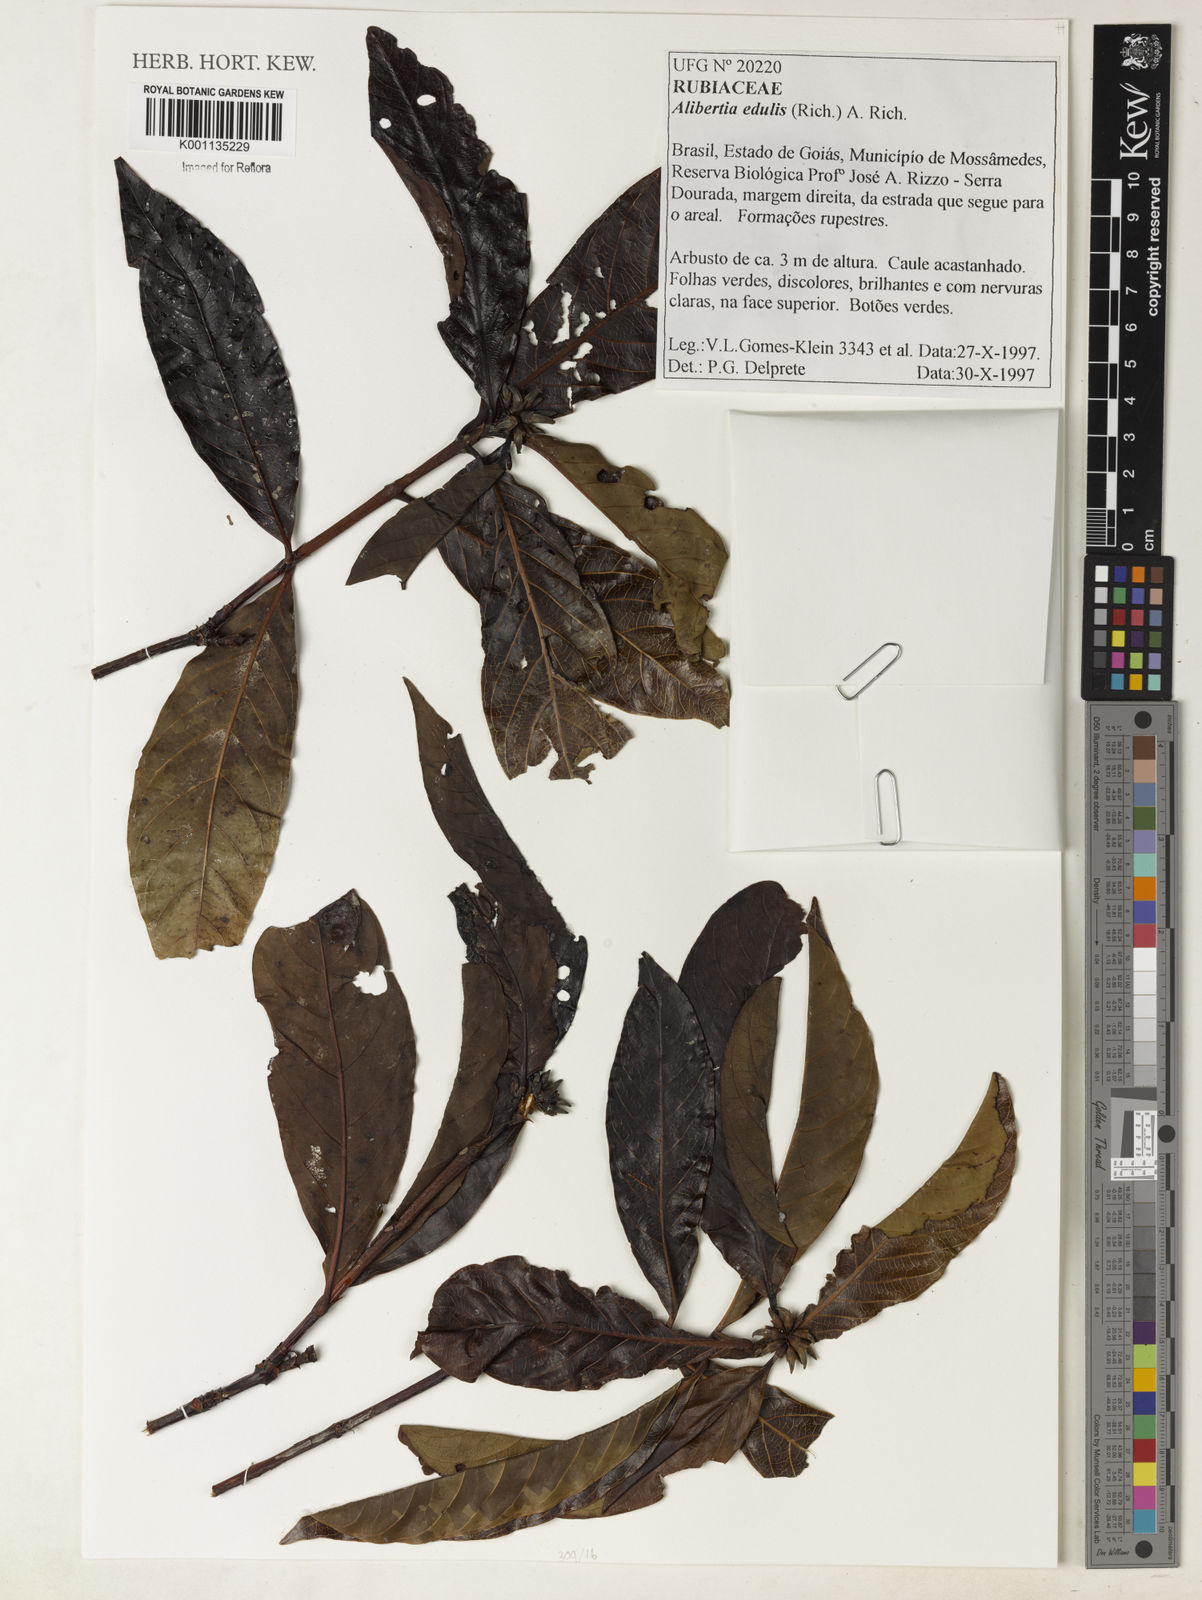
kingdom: Plantae
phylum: Tracheophyta
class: Magnoliopsida
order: Gentianales
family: Rubiaceae
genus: Alibertia
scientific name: Alibertia edulis
